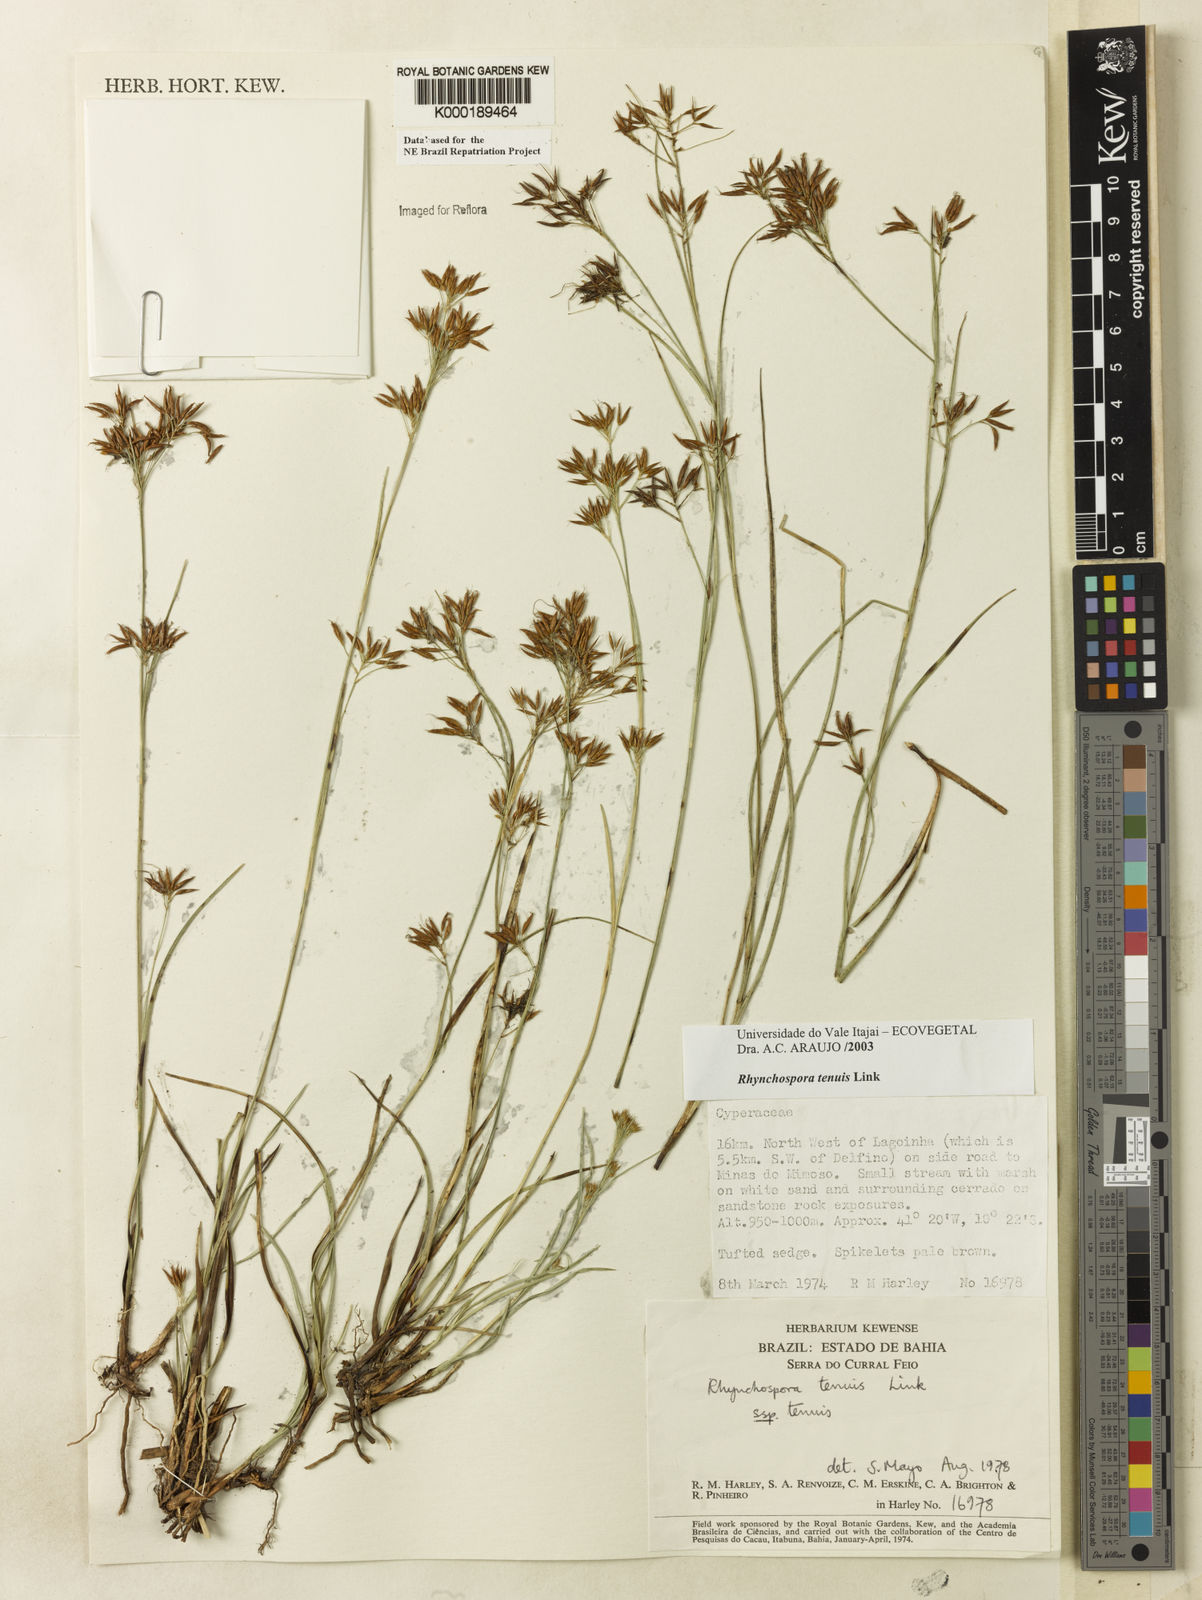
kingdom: Plantae
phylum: Tracheophyta
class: Liliopsida
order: Poales
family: Cyperaceae
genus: Rhynchospora
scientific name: Rhynchospora tenuis
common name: Quill beaksedge
